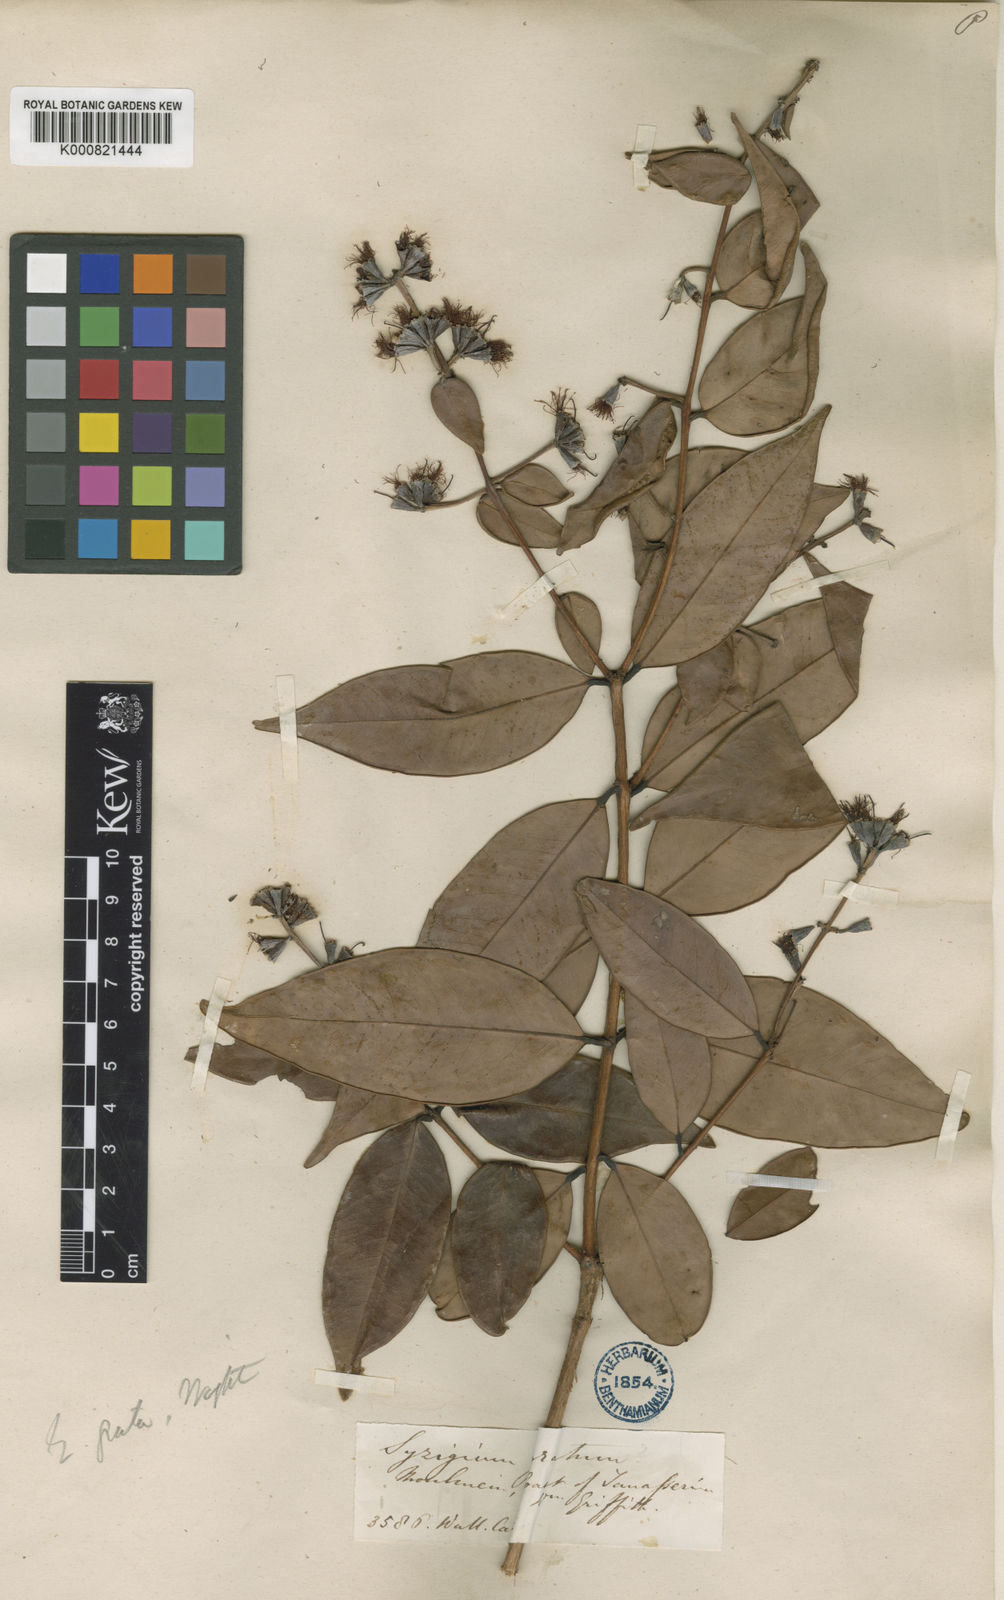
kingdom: Plantae
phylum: Tracheophyta
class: Magnoliopsida
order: Myrtales
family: Myrtaceae
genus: Syzygium
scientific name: Syzygium
